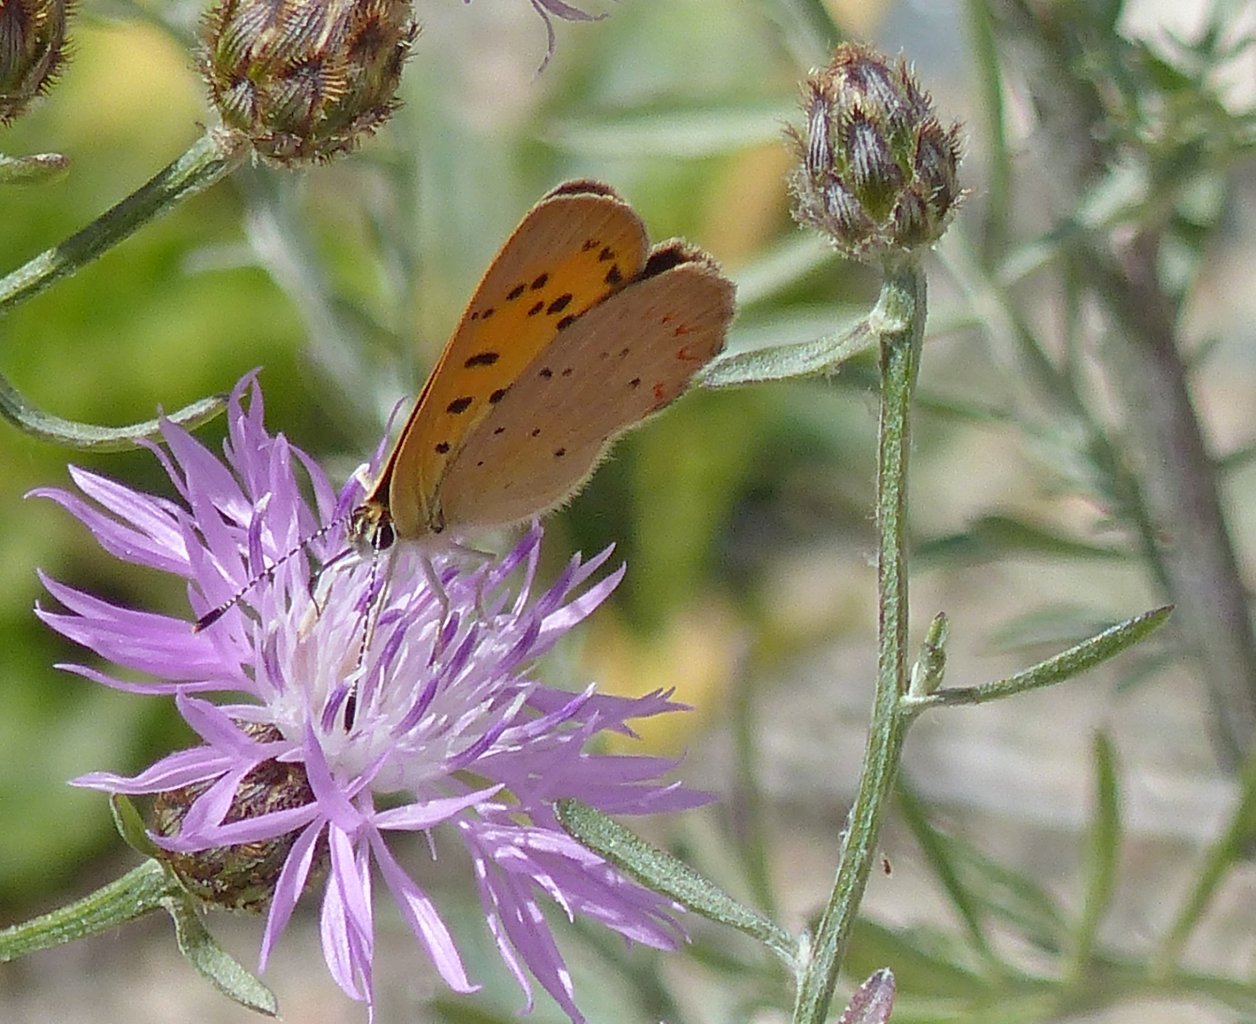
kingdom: Animalia
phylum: Arthropoda
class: Insecta
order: Lepidoptera
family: Sesiidae
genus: Sesia
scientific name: Sesia Lycaena helloides
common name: Purplish Copper
